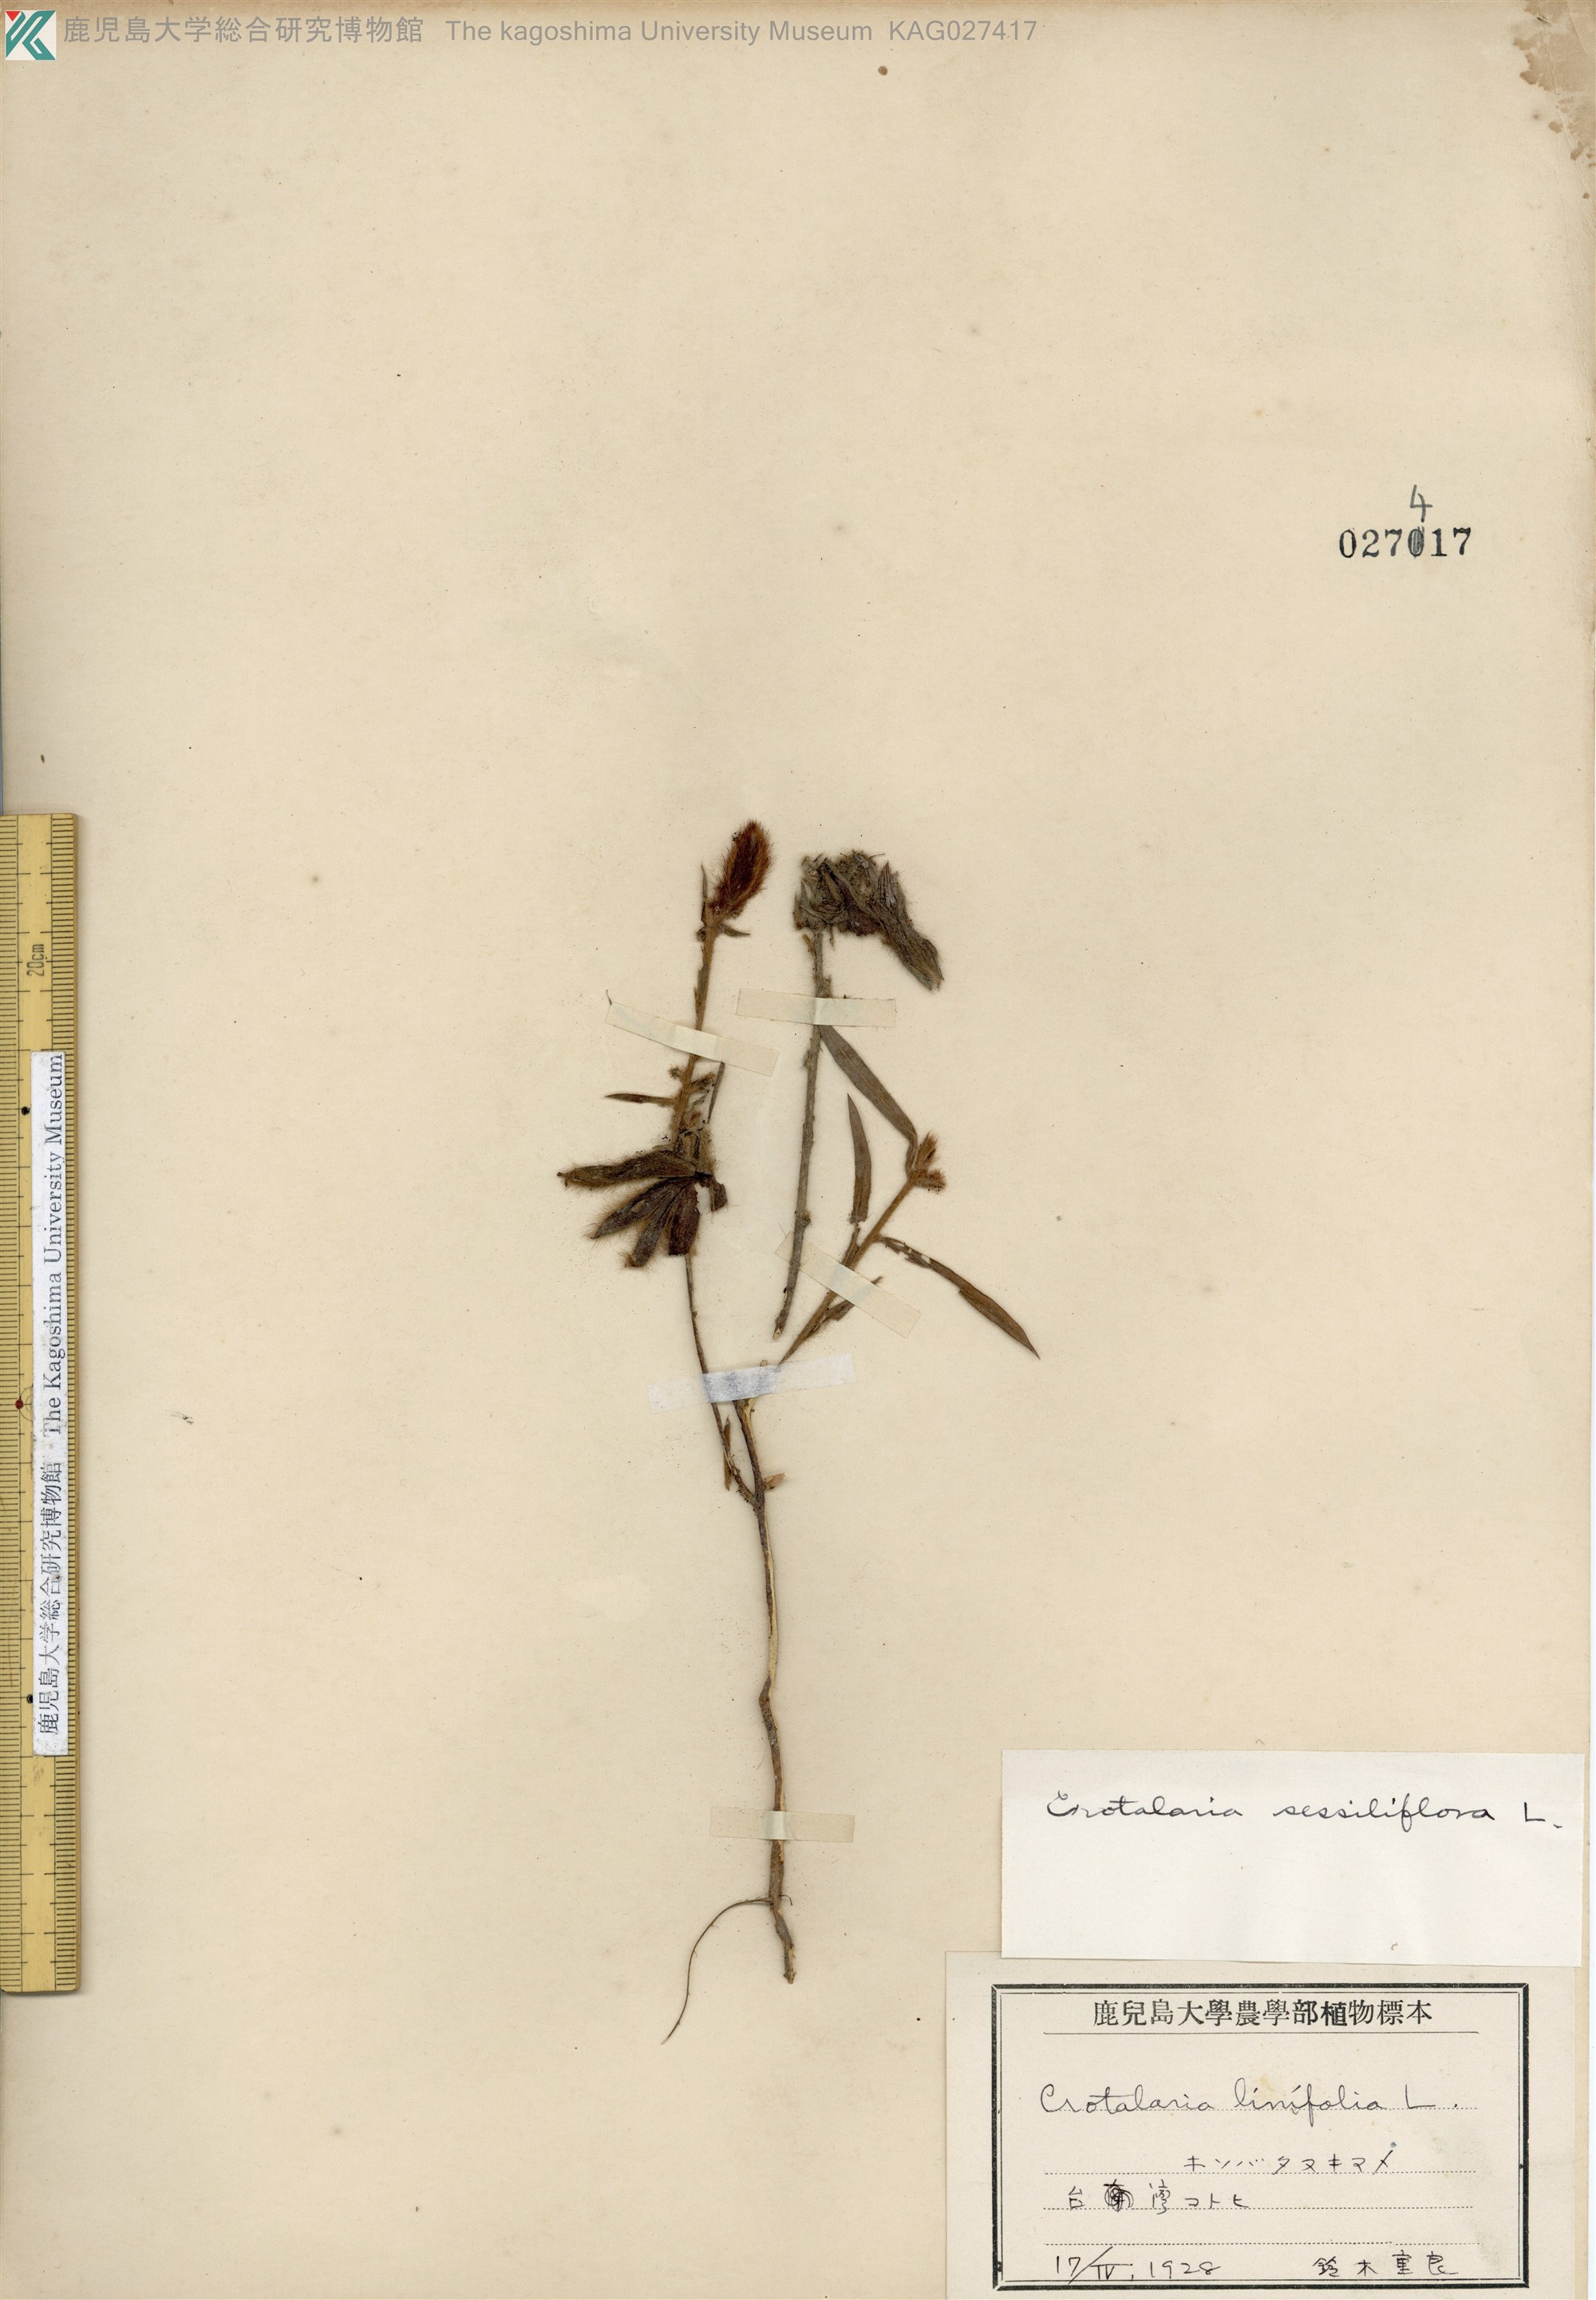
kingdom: Plantae
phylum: Tracheophyta
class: Magnoliopsida
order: Fabales
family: Fabaceae
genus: Crotalaria
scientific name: Crotalaria sessiliflora
